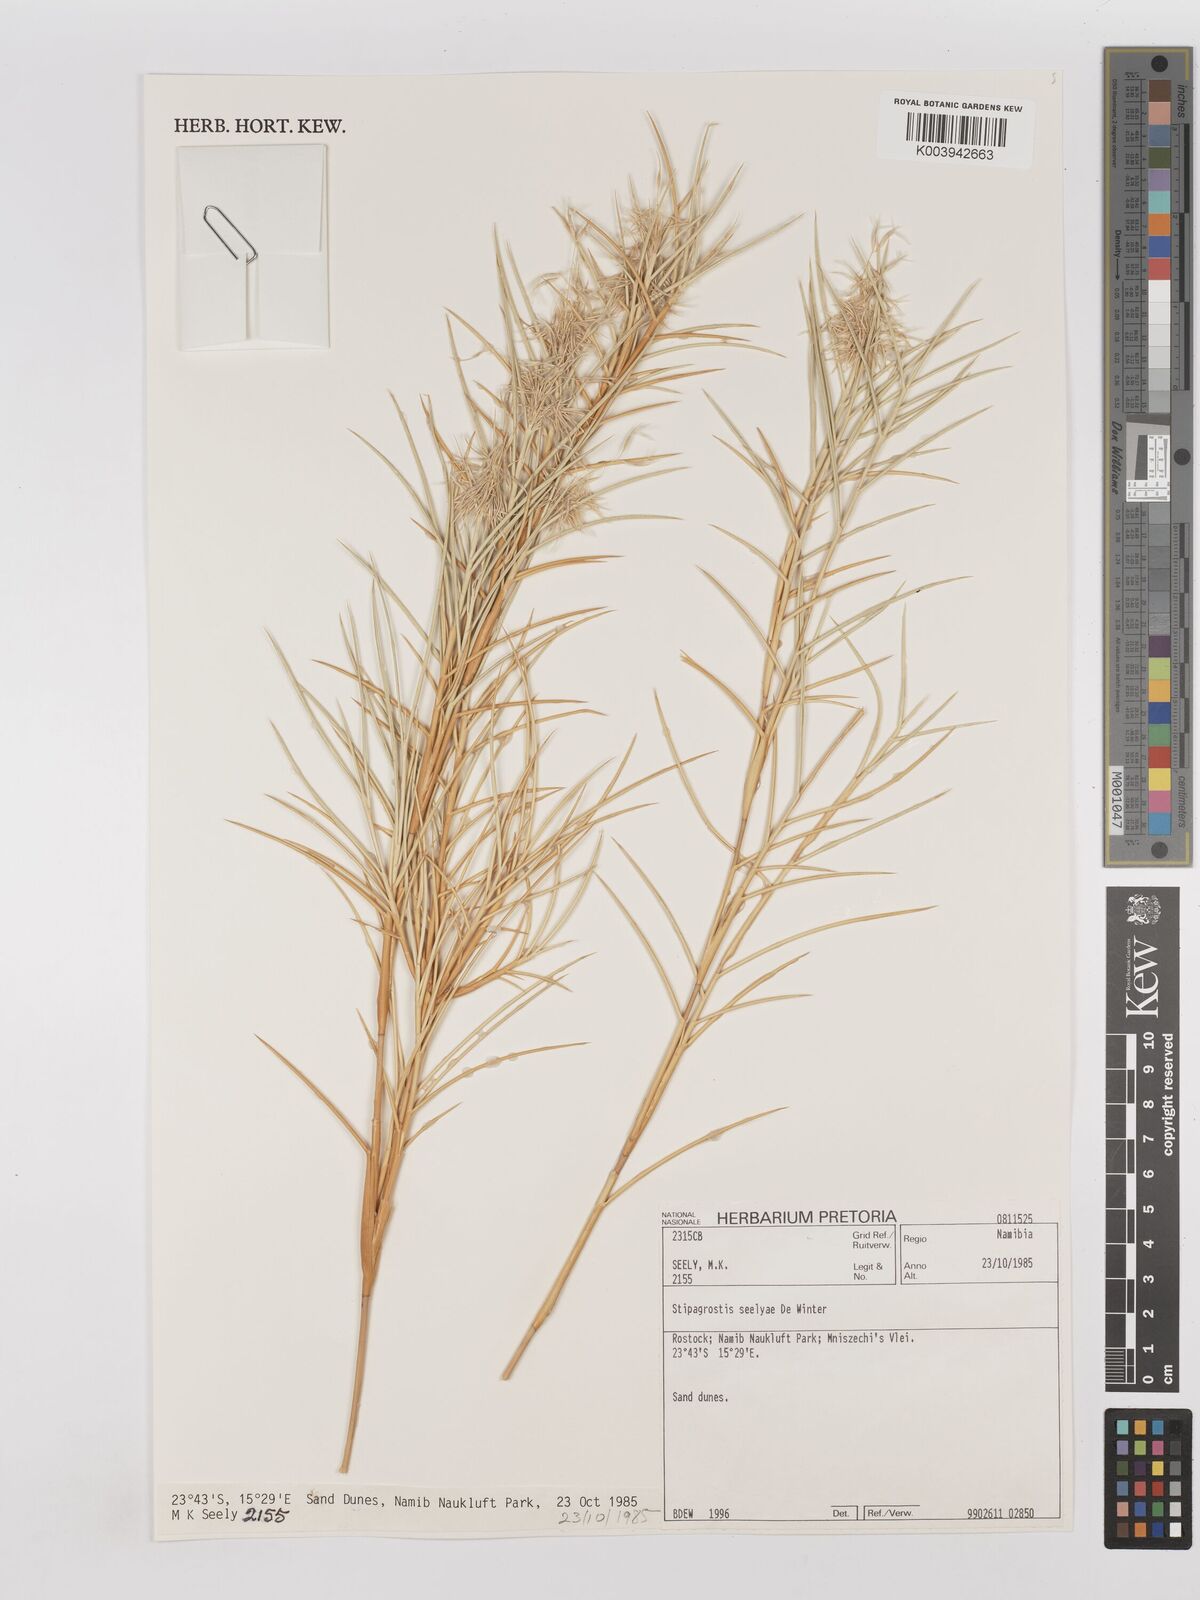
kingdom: Plantae
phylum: Tracheophyta
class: Liliopsida
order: Poales
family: Poaceae
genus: Stipagrostis
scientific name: Stipagrostis seelyae
